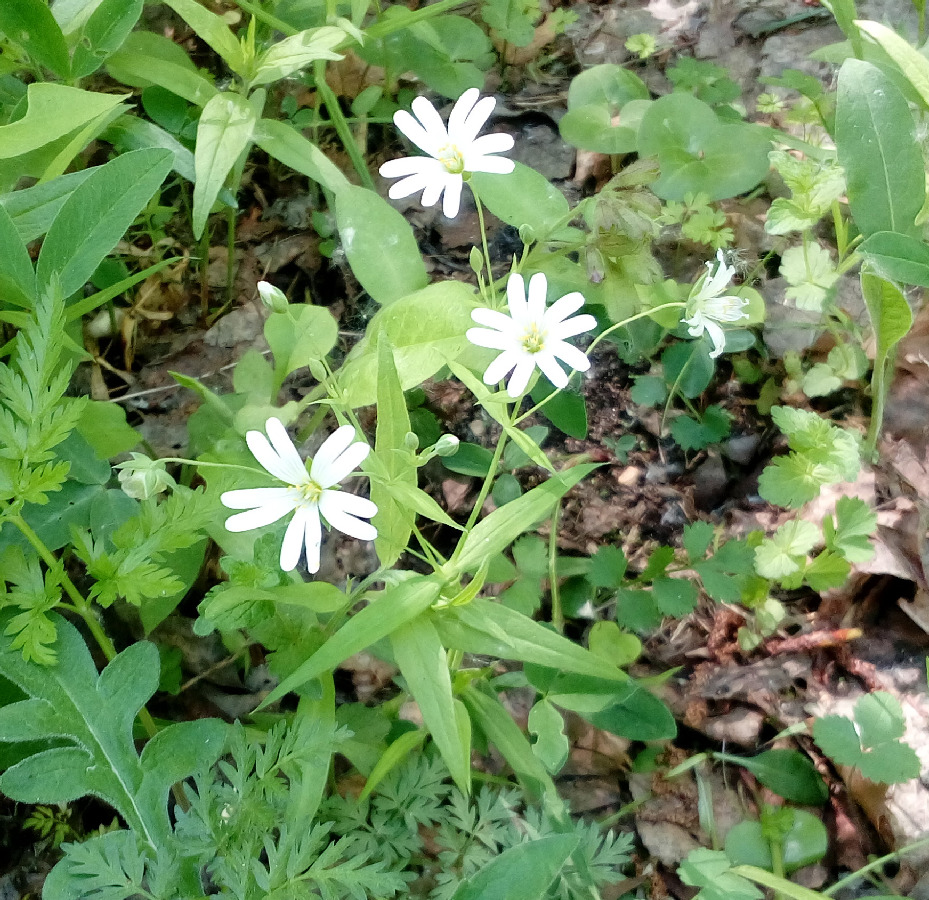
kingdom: Plantae
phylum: Tracheophyta
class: Magnoliopsida
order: Caryophyllales
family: Caryophyllaceae
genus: Rabelera
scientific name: Rabelera holostea
